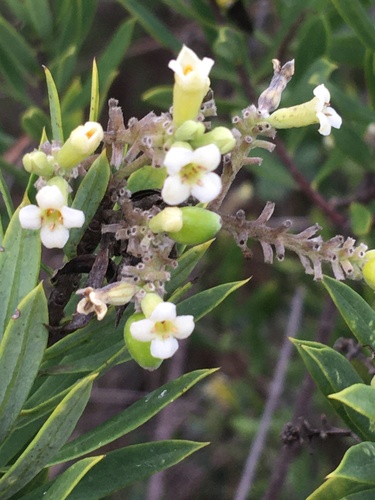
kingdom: Plantae
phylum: Tracheophyta
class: Magnoliopsida
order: Malvales
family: Thymelaeaceae
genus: Daphne
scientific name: Daphne gnidium
